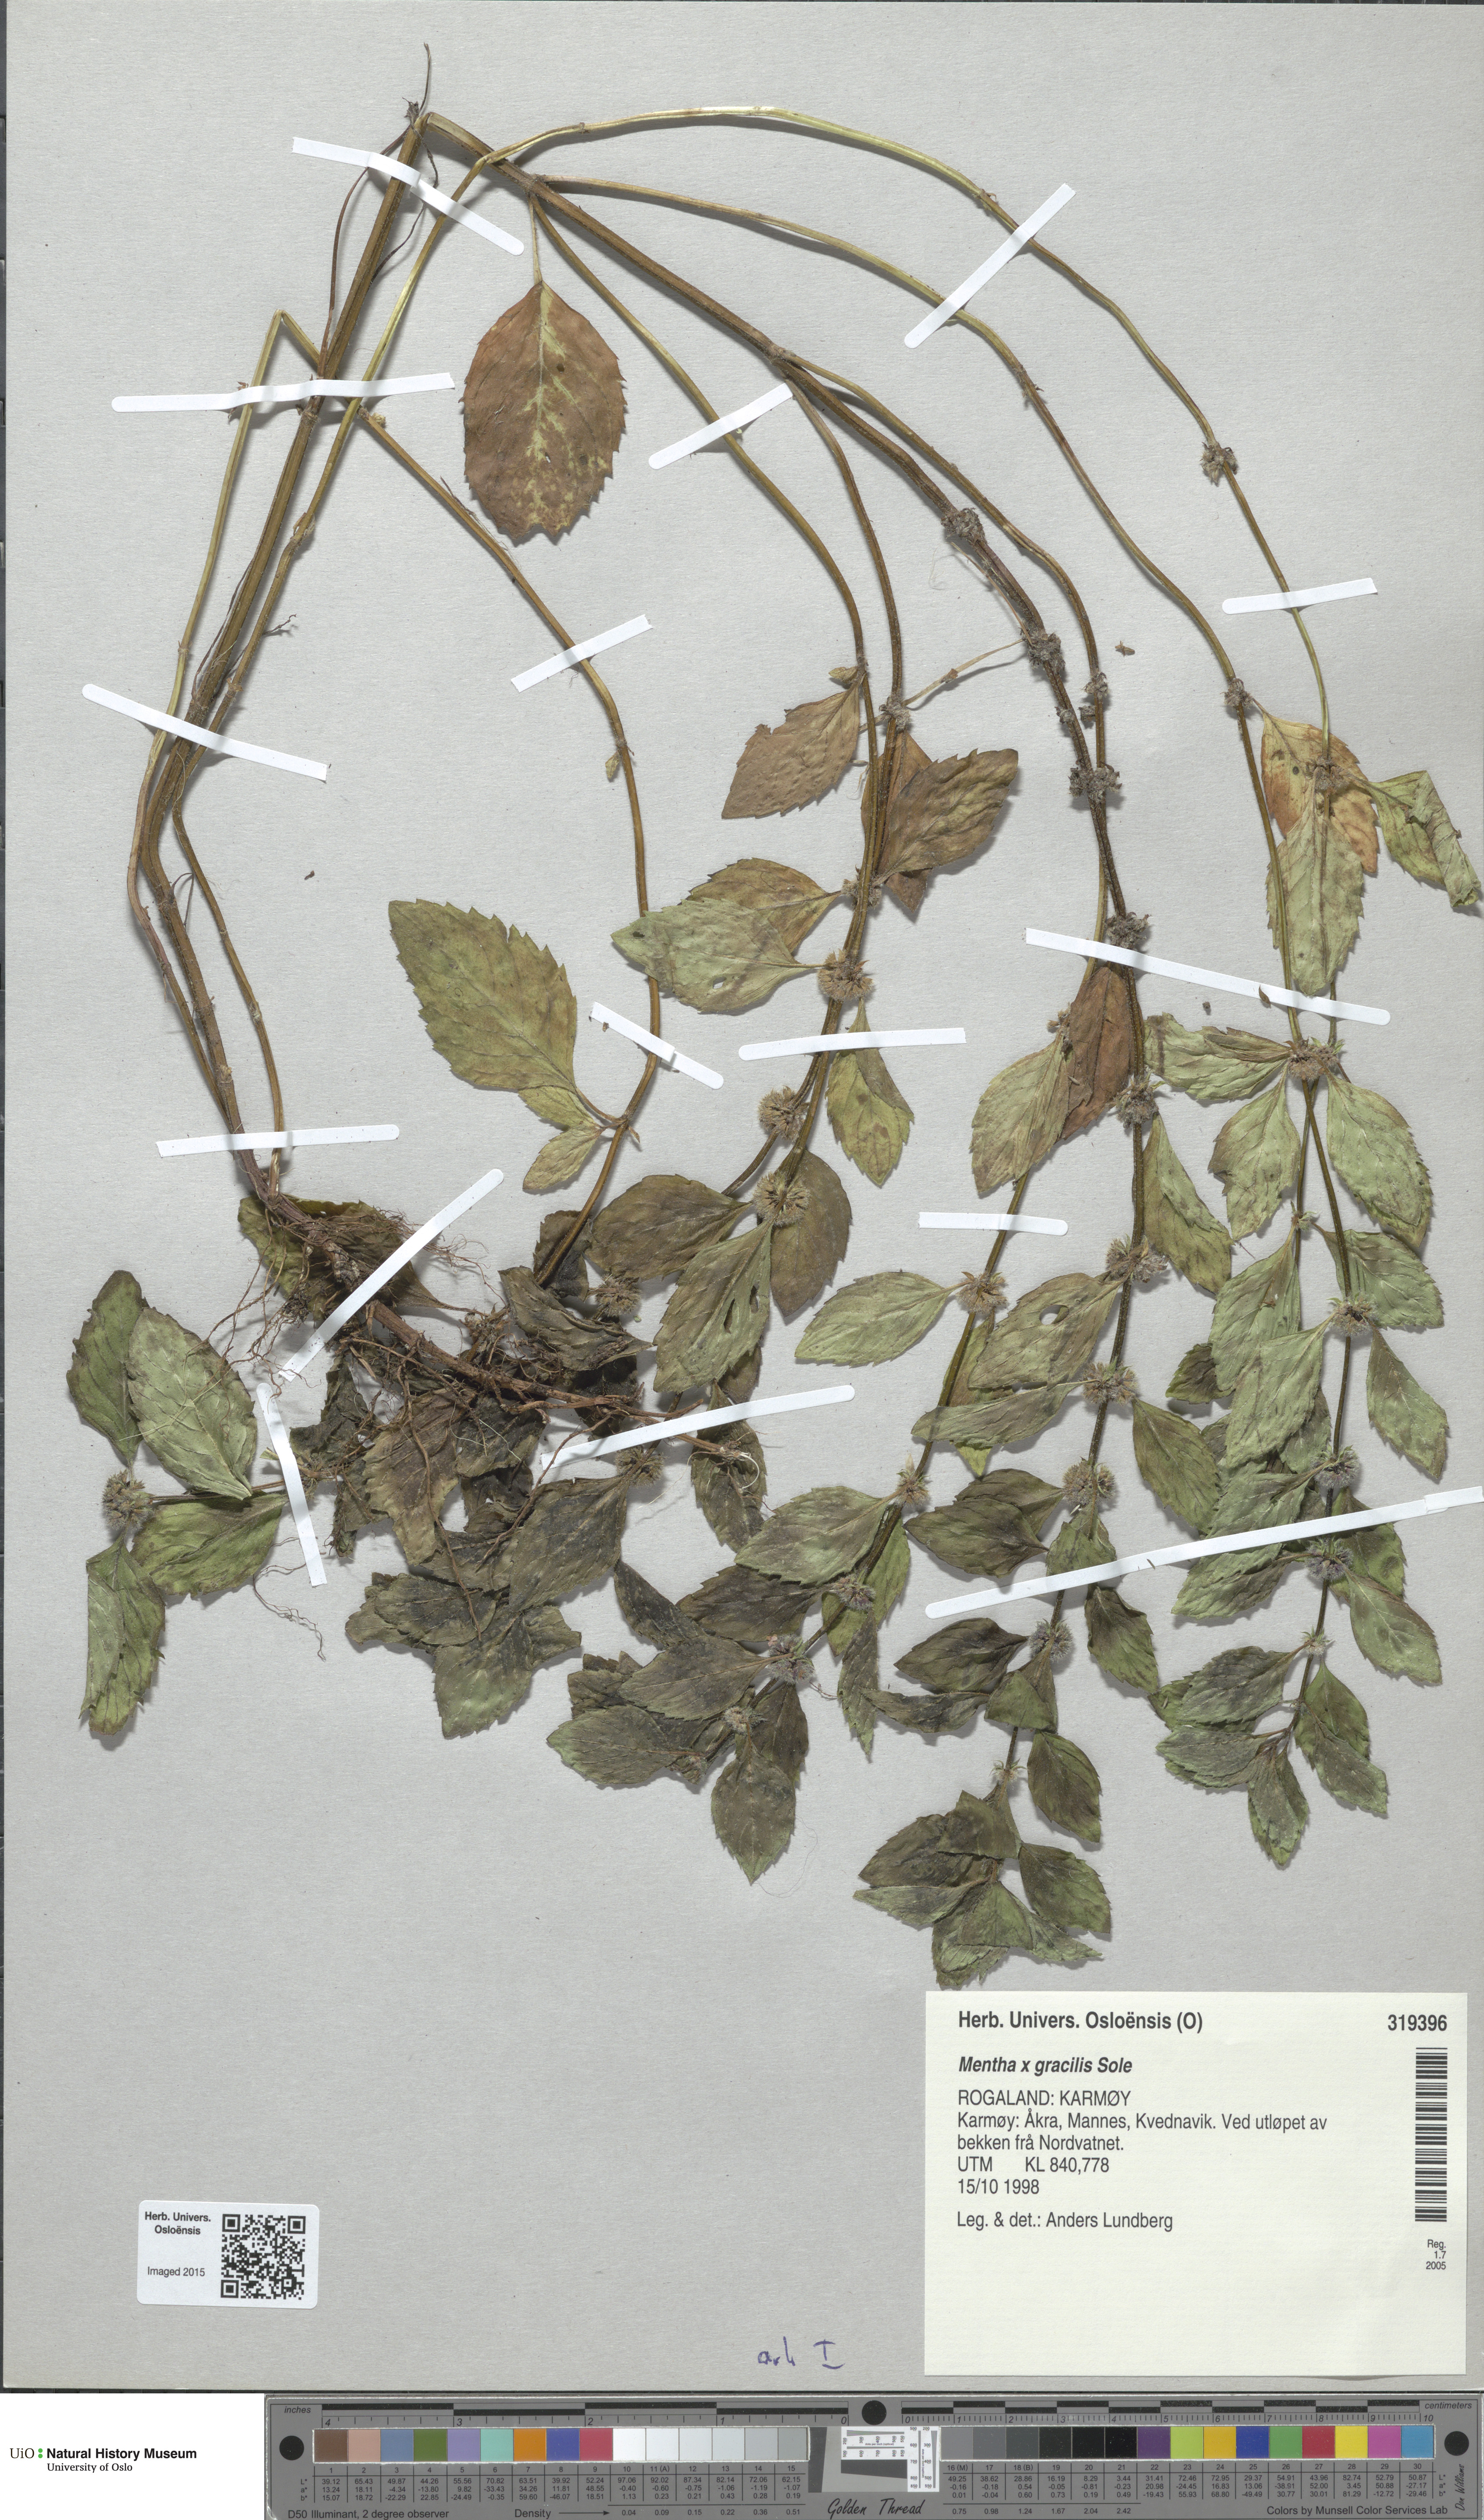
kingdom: Plantae
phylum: Tracheophyta
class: Magnoliopsida
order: Lamiales
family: Lamiaceae
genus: Mentha
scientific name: Mentha arvensis
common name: Corn mint
